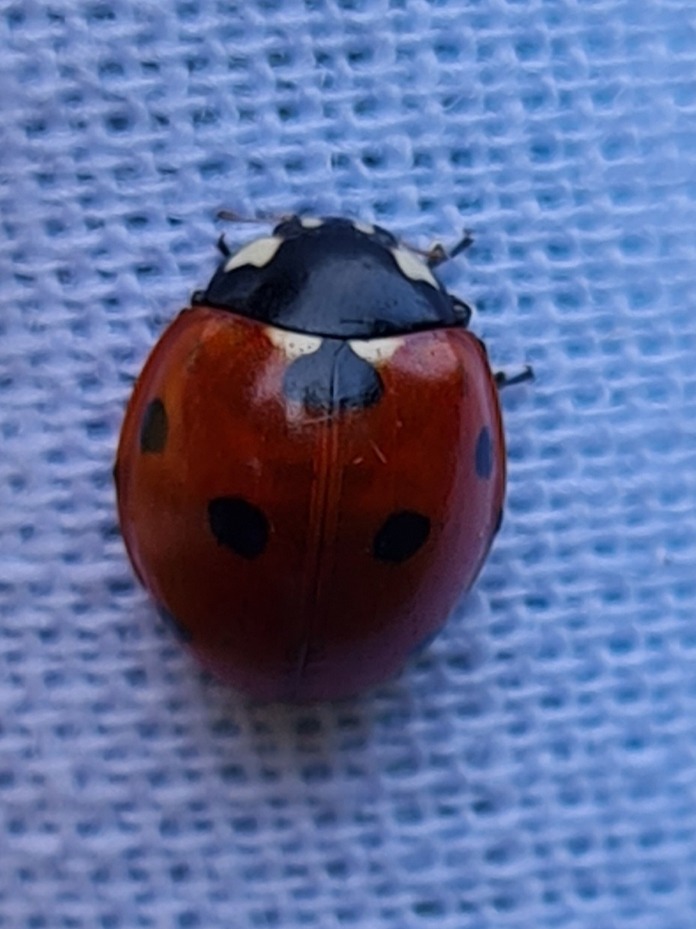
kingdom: Animalia
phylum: Arthropoda
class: Insecta
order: Coleoptera
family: Coccinellidae
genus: Coccinella
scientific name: Coccinella septempunctata
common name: Syvplettet mariehøne
